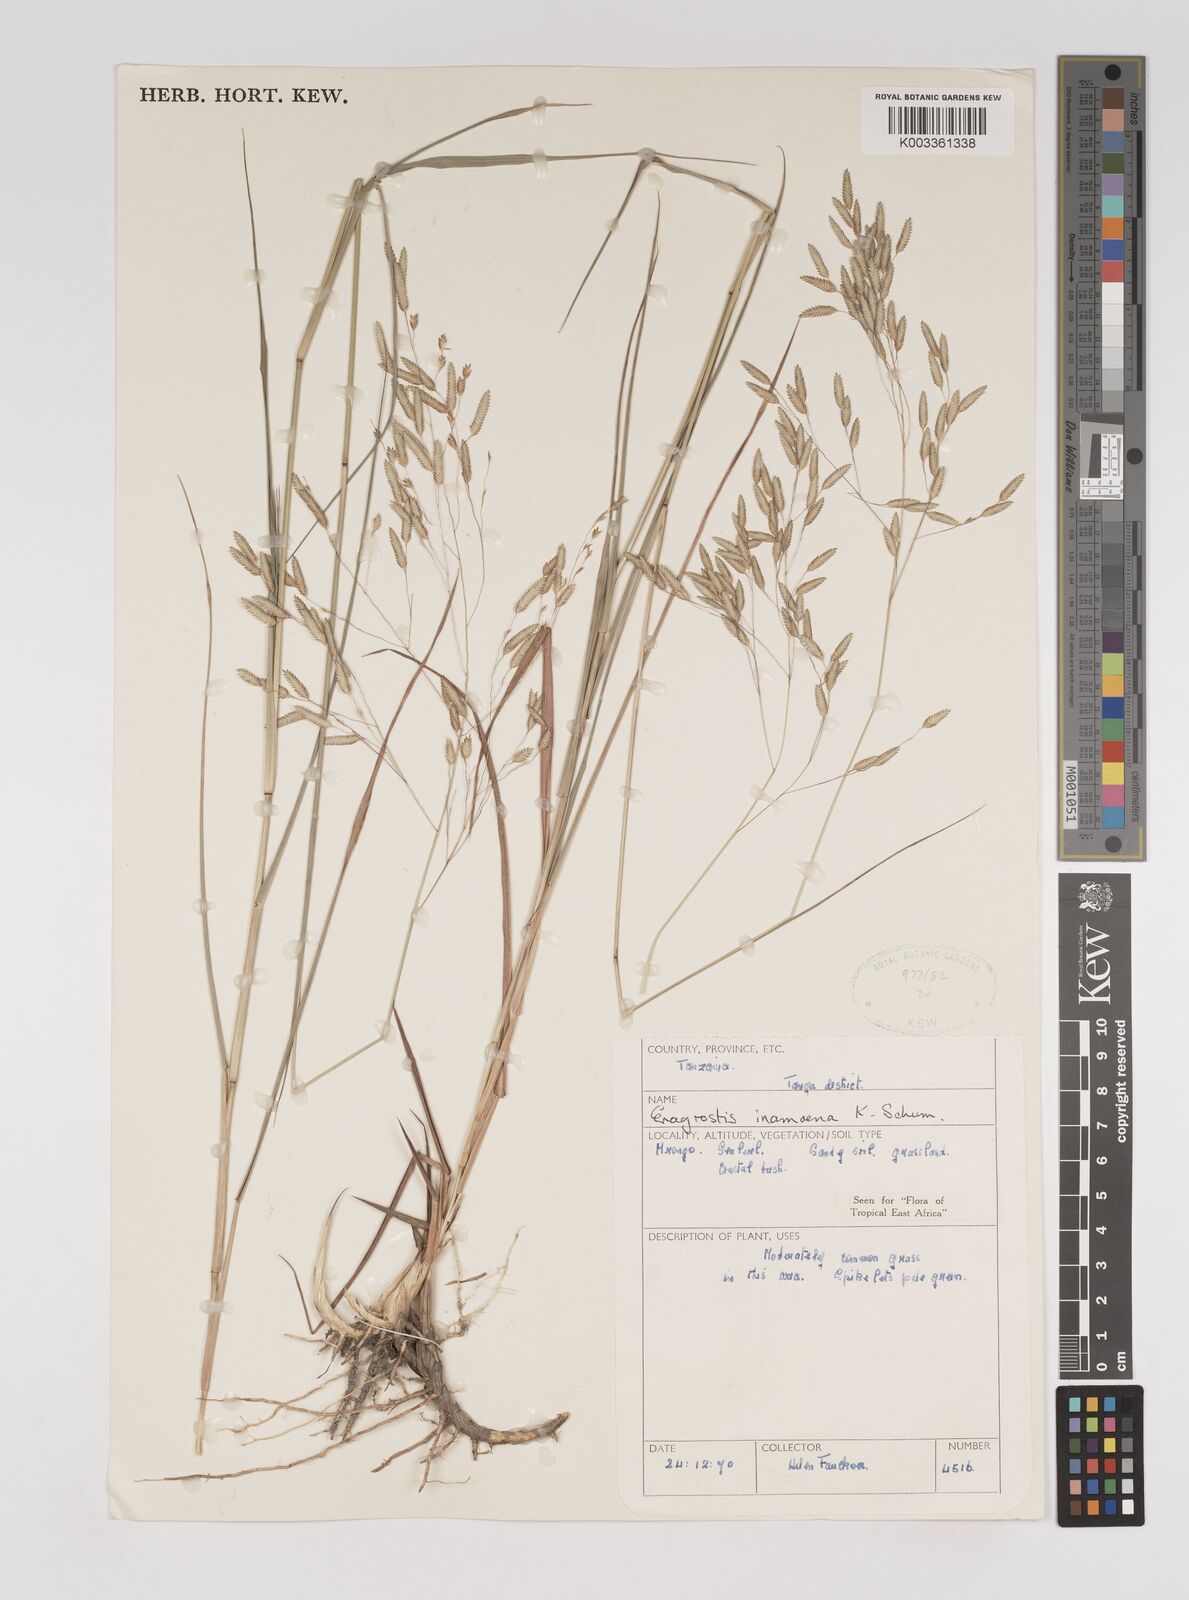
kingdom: Plantae
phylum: Tracheophyta
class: Liliopsida
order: Poales
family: Poaceae
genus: Eragrostis
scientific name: Eragrostis inamoena
